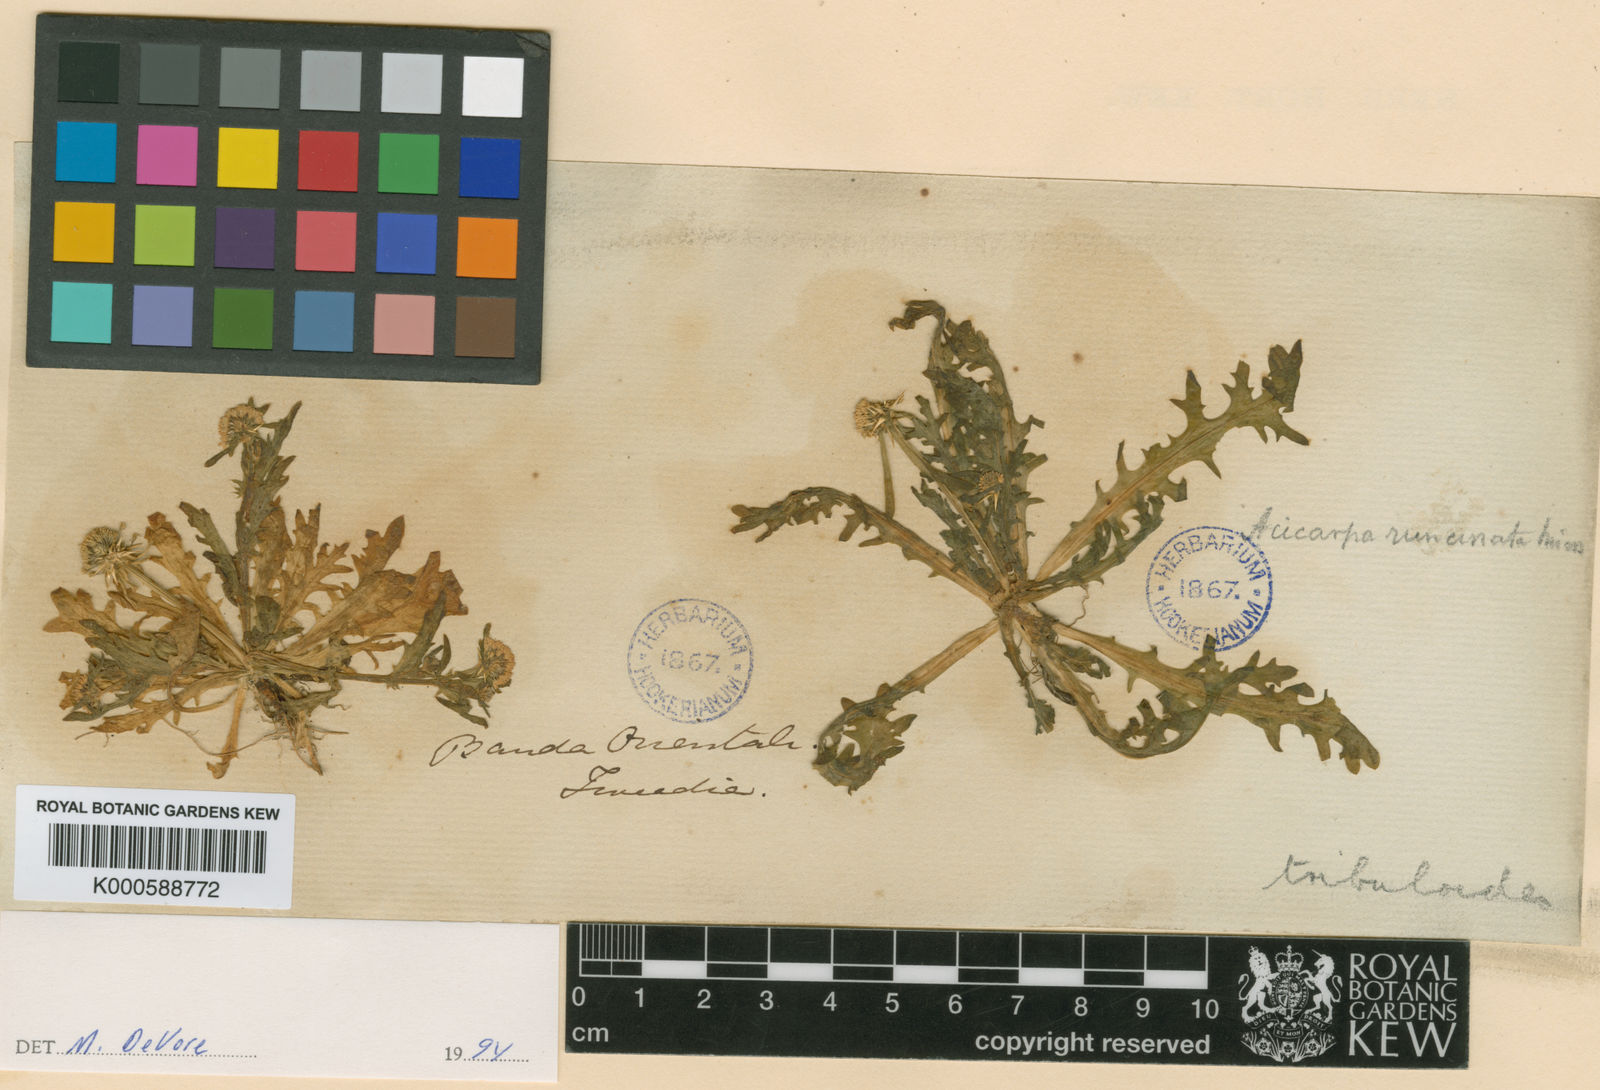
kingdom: Plantae
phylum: Tracheophyta
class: Magnoliopsida
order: Asterales
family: Calyceraceae
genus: Acicarpha
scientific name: Acicarpha tribuloides
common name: Madam gorgon
